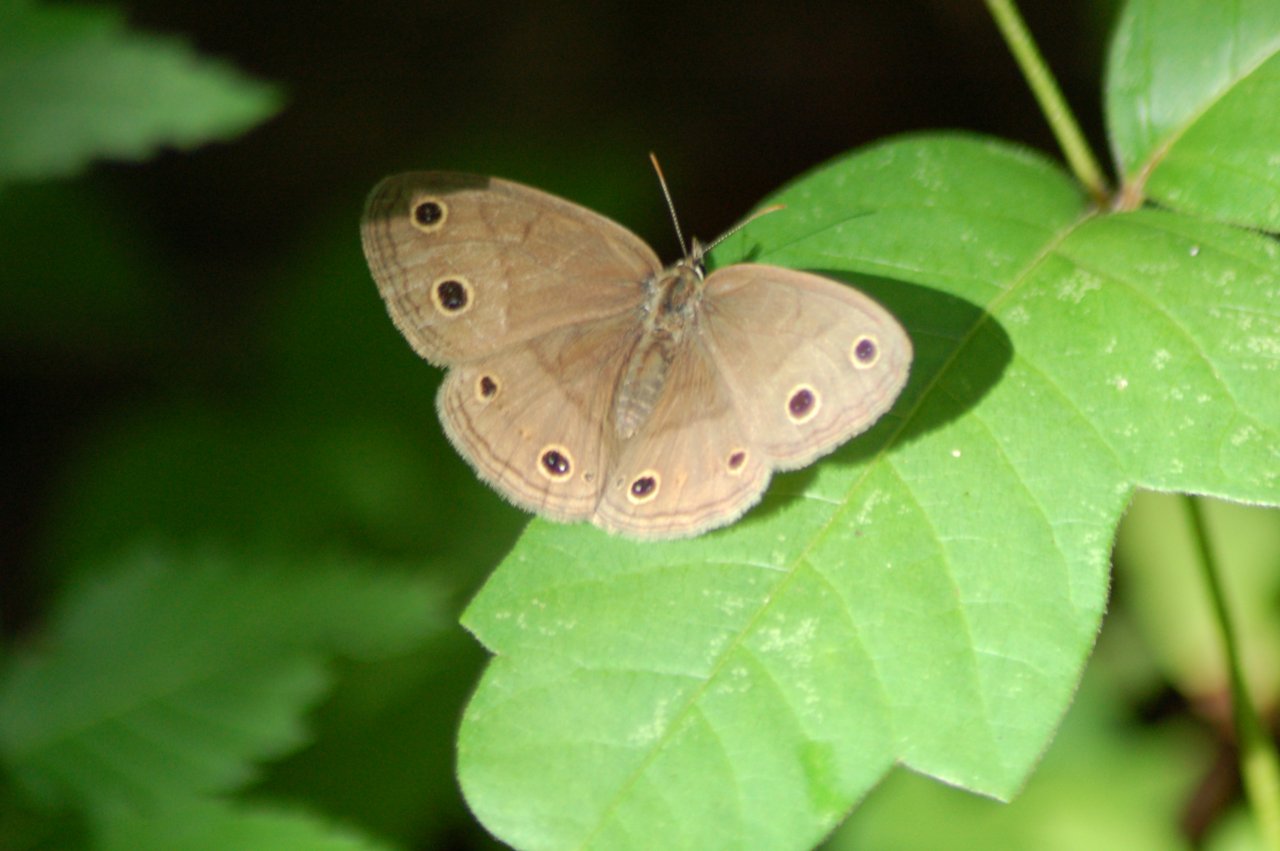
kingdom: Animalia
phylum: Arthropoda
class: Insecta
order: Lepidoptera
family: Nymphalidae
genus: Euptychia
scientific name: Euptychia cymela
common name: Little Wood Satyr
